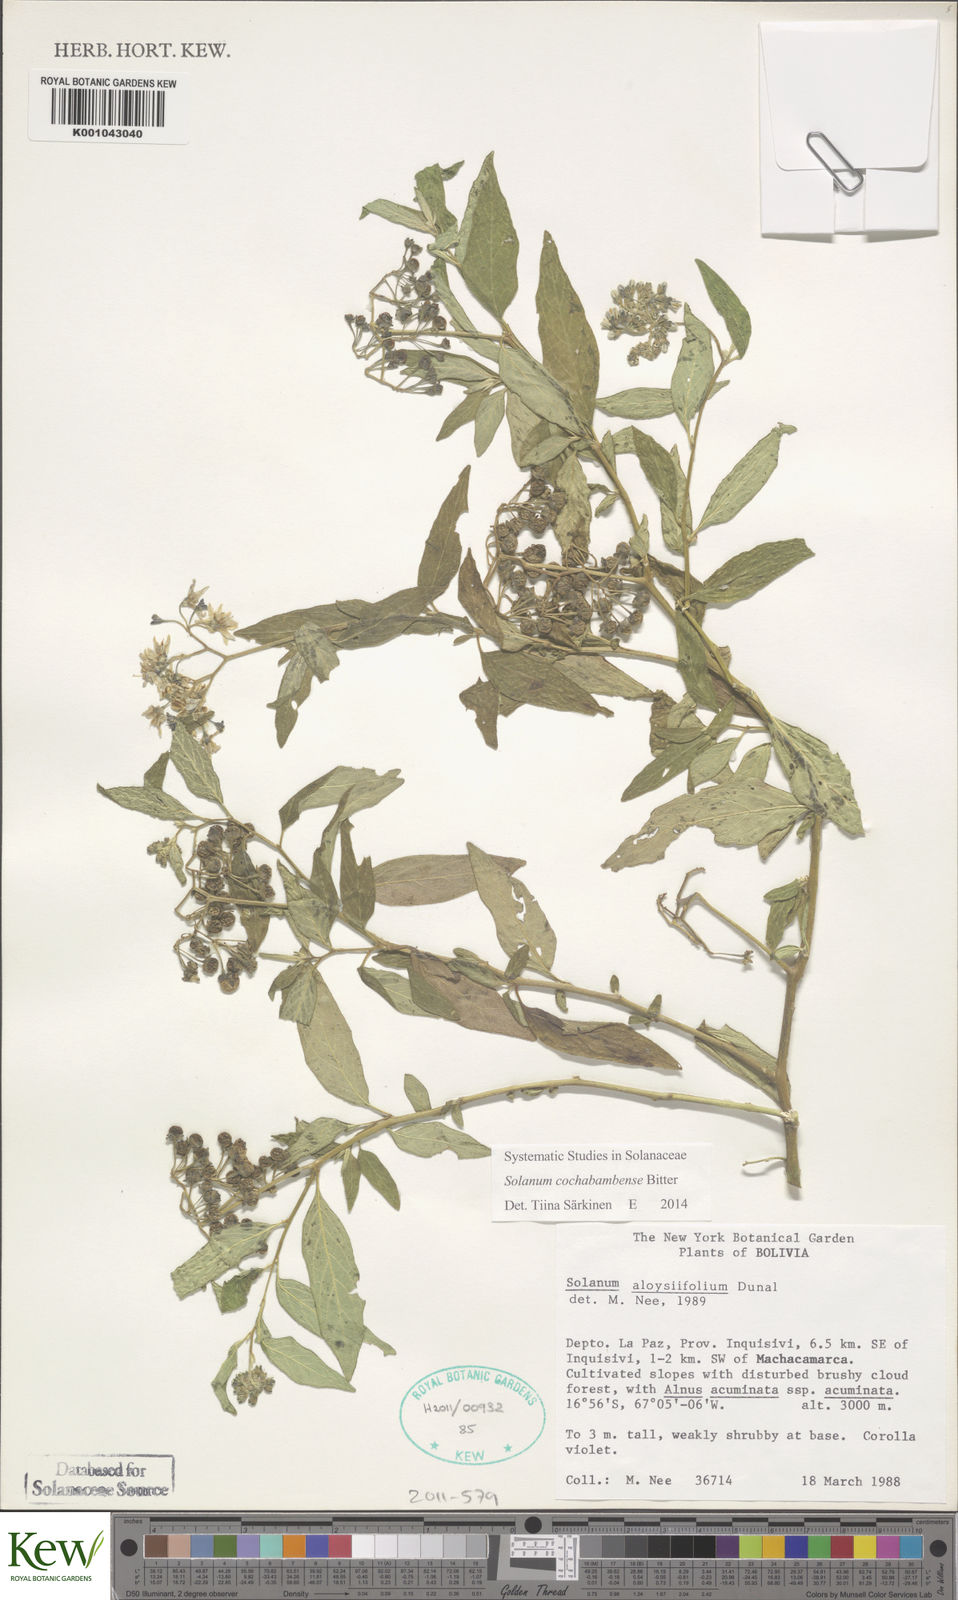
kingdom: Plantae
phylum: Tracheophyta
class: Magnoliopsida
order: Solanales
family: Solanaceae
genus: Solanum
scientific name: Solanum probolospermum
